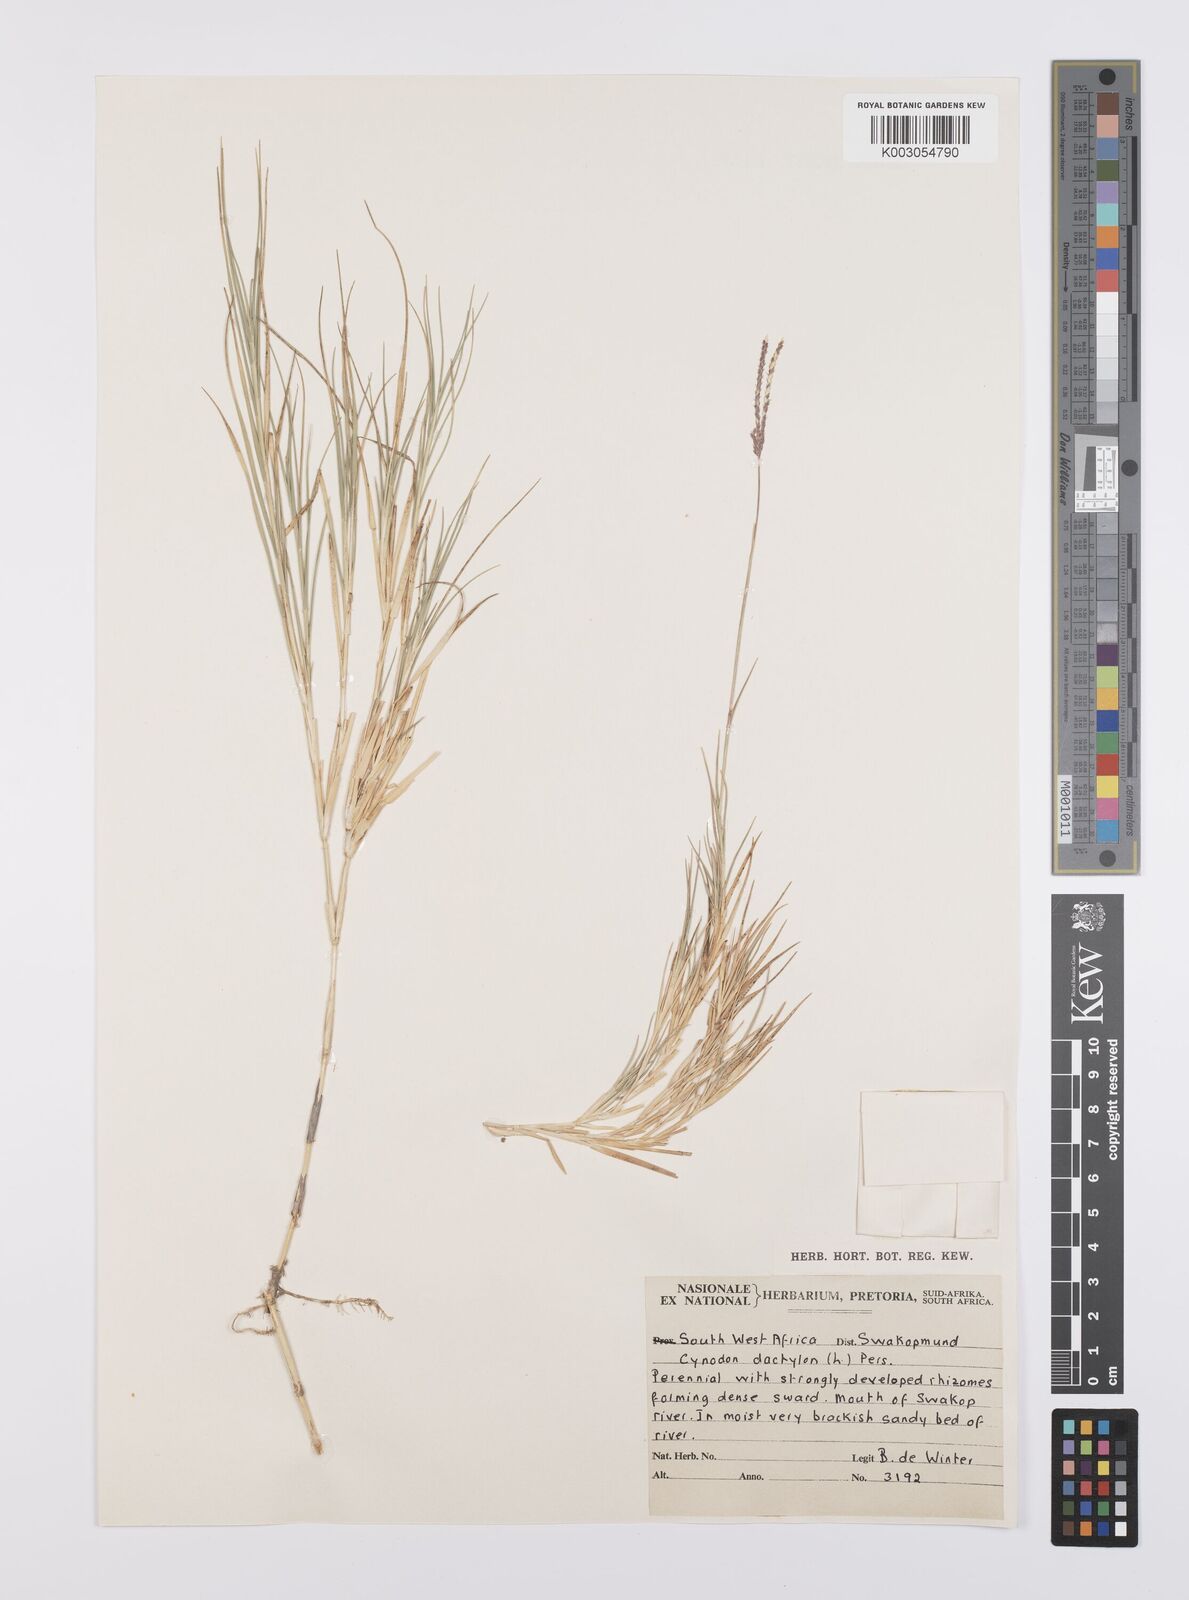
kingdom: Plantae
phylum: Tracheophyta
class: Liliopsida
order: Poales
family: Poaceae
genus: Cynodon
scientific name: Cynodon dactylon
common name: Bermuda grass
